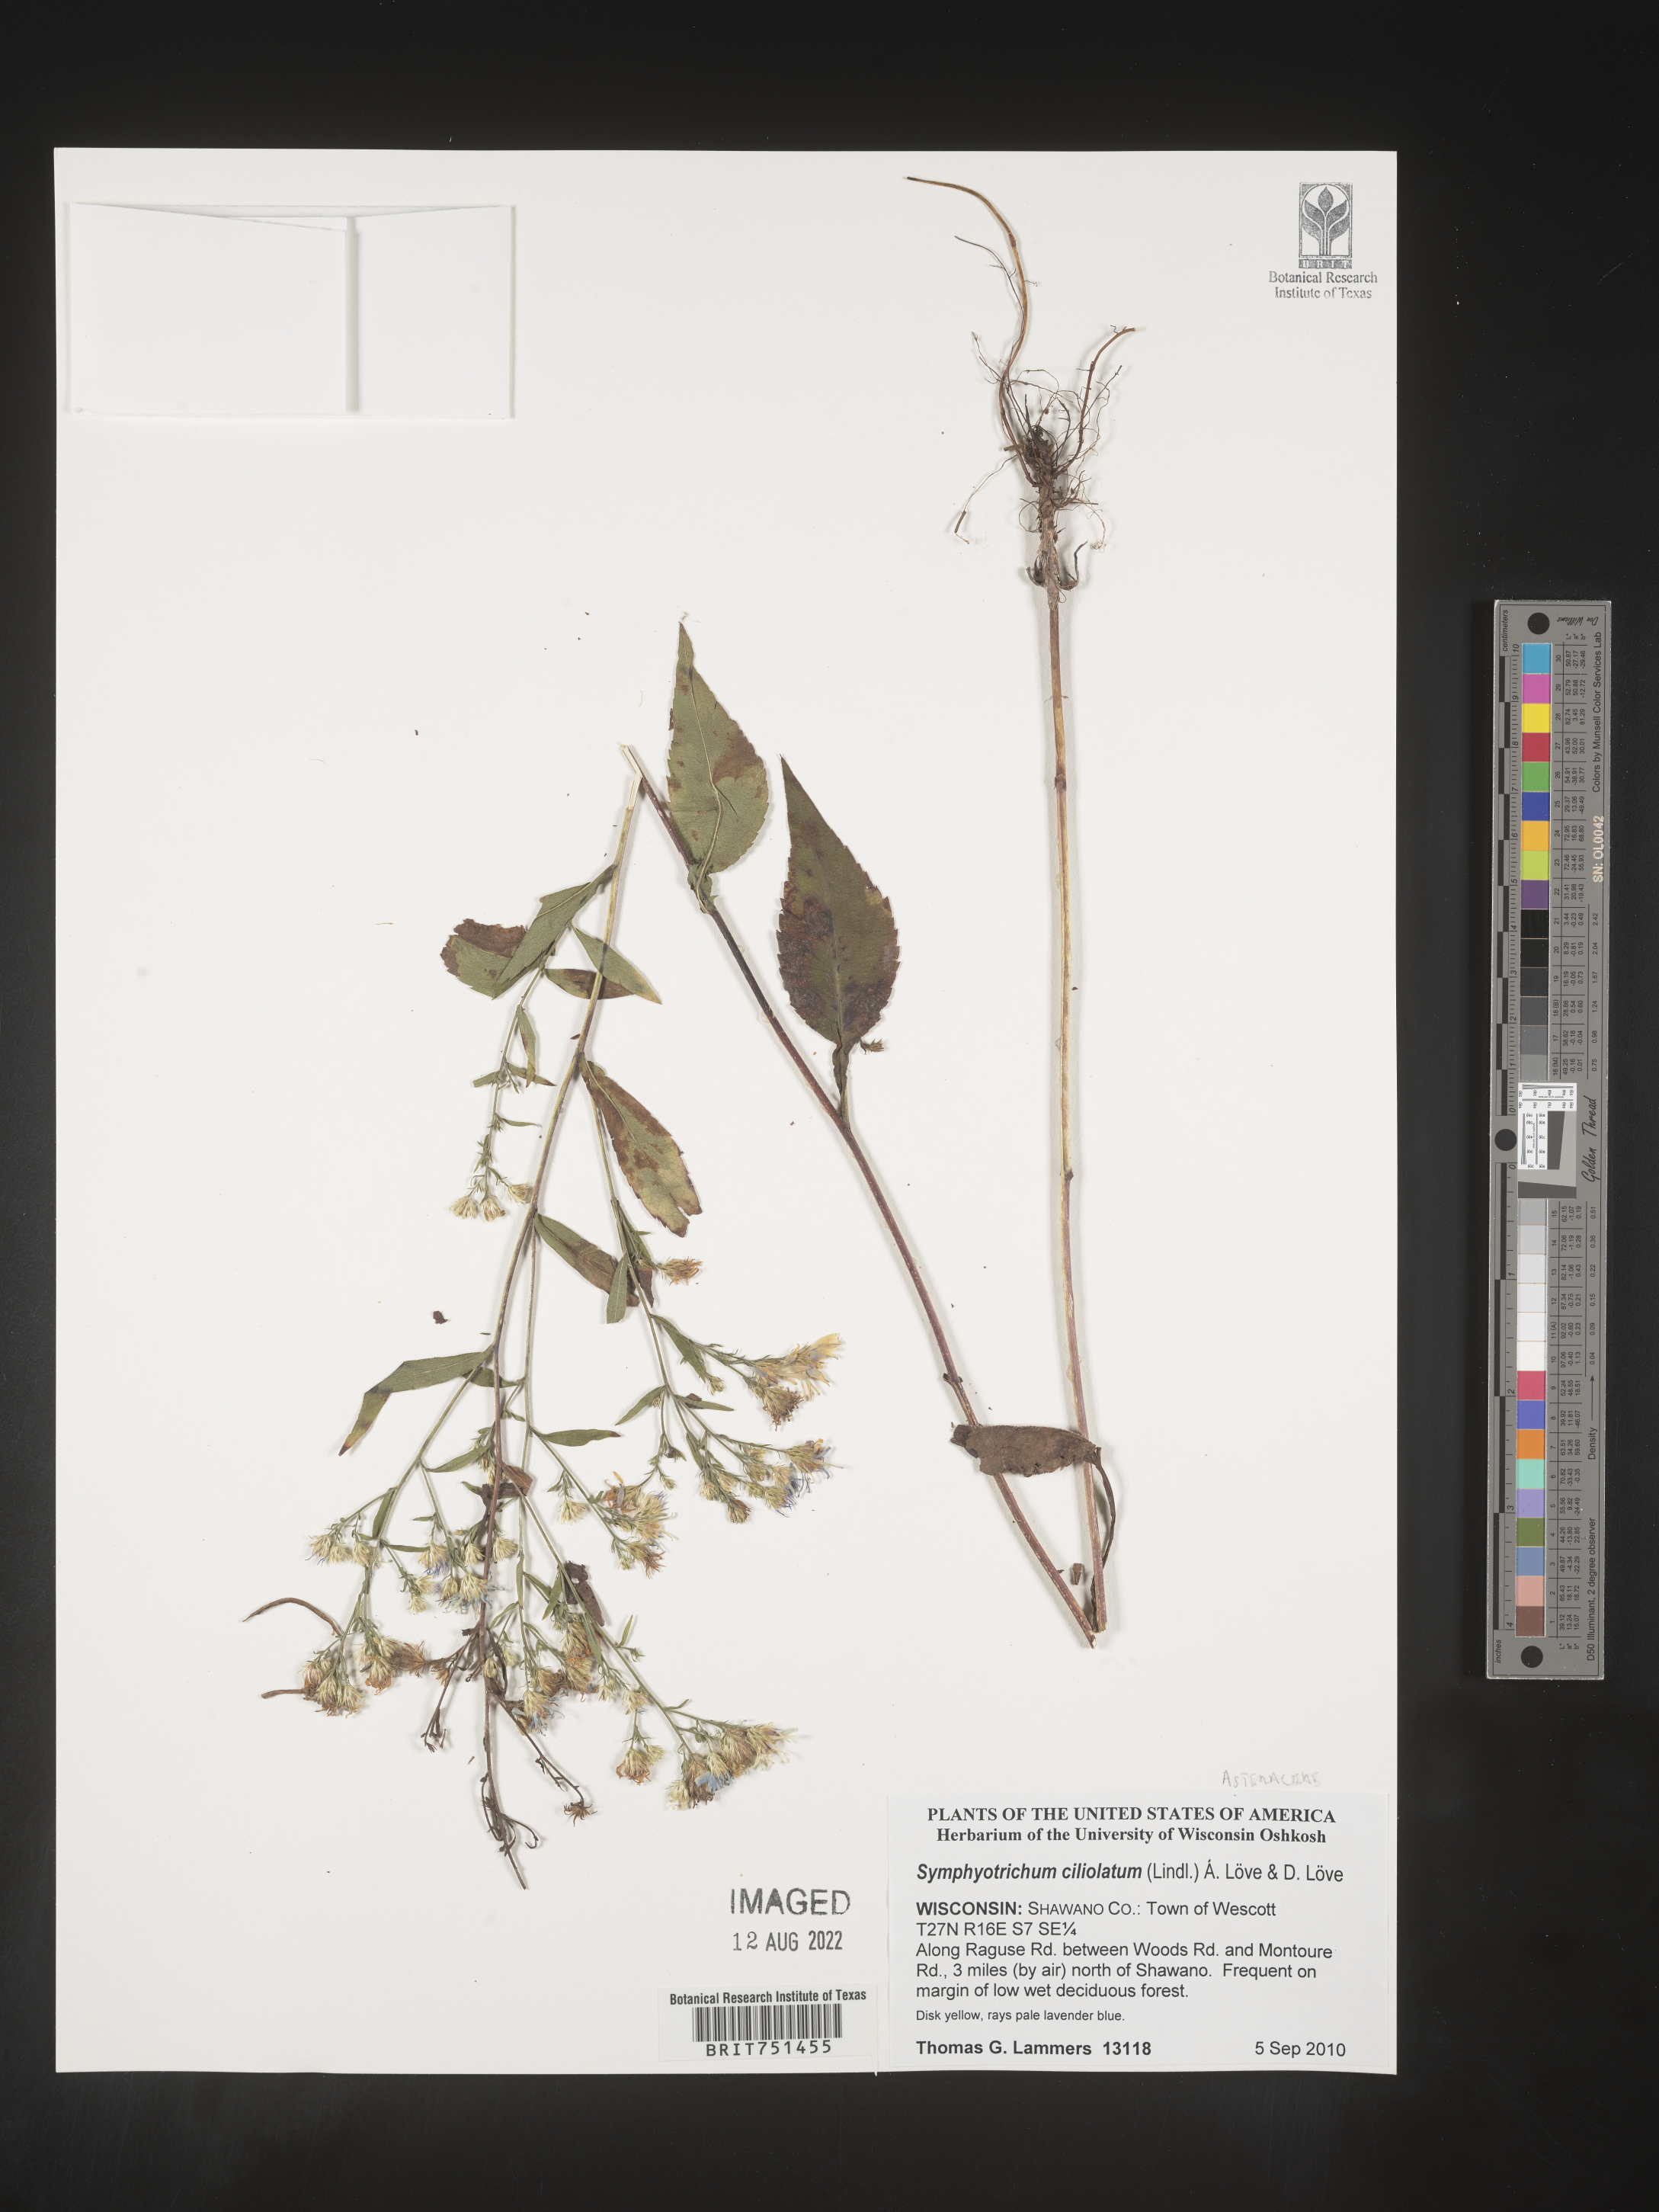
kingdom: Plantae
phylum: Tracheophyta
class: Magnoliopsida
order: Asterales
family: Asteraceae
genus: Symphyotrichum
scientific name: Symphyotrichum ciliatum
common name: Rayless annual aster
